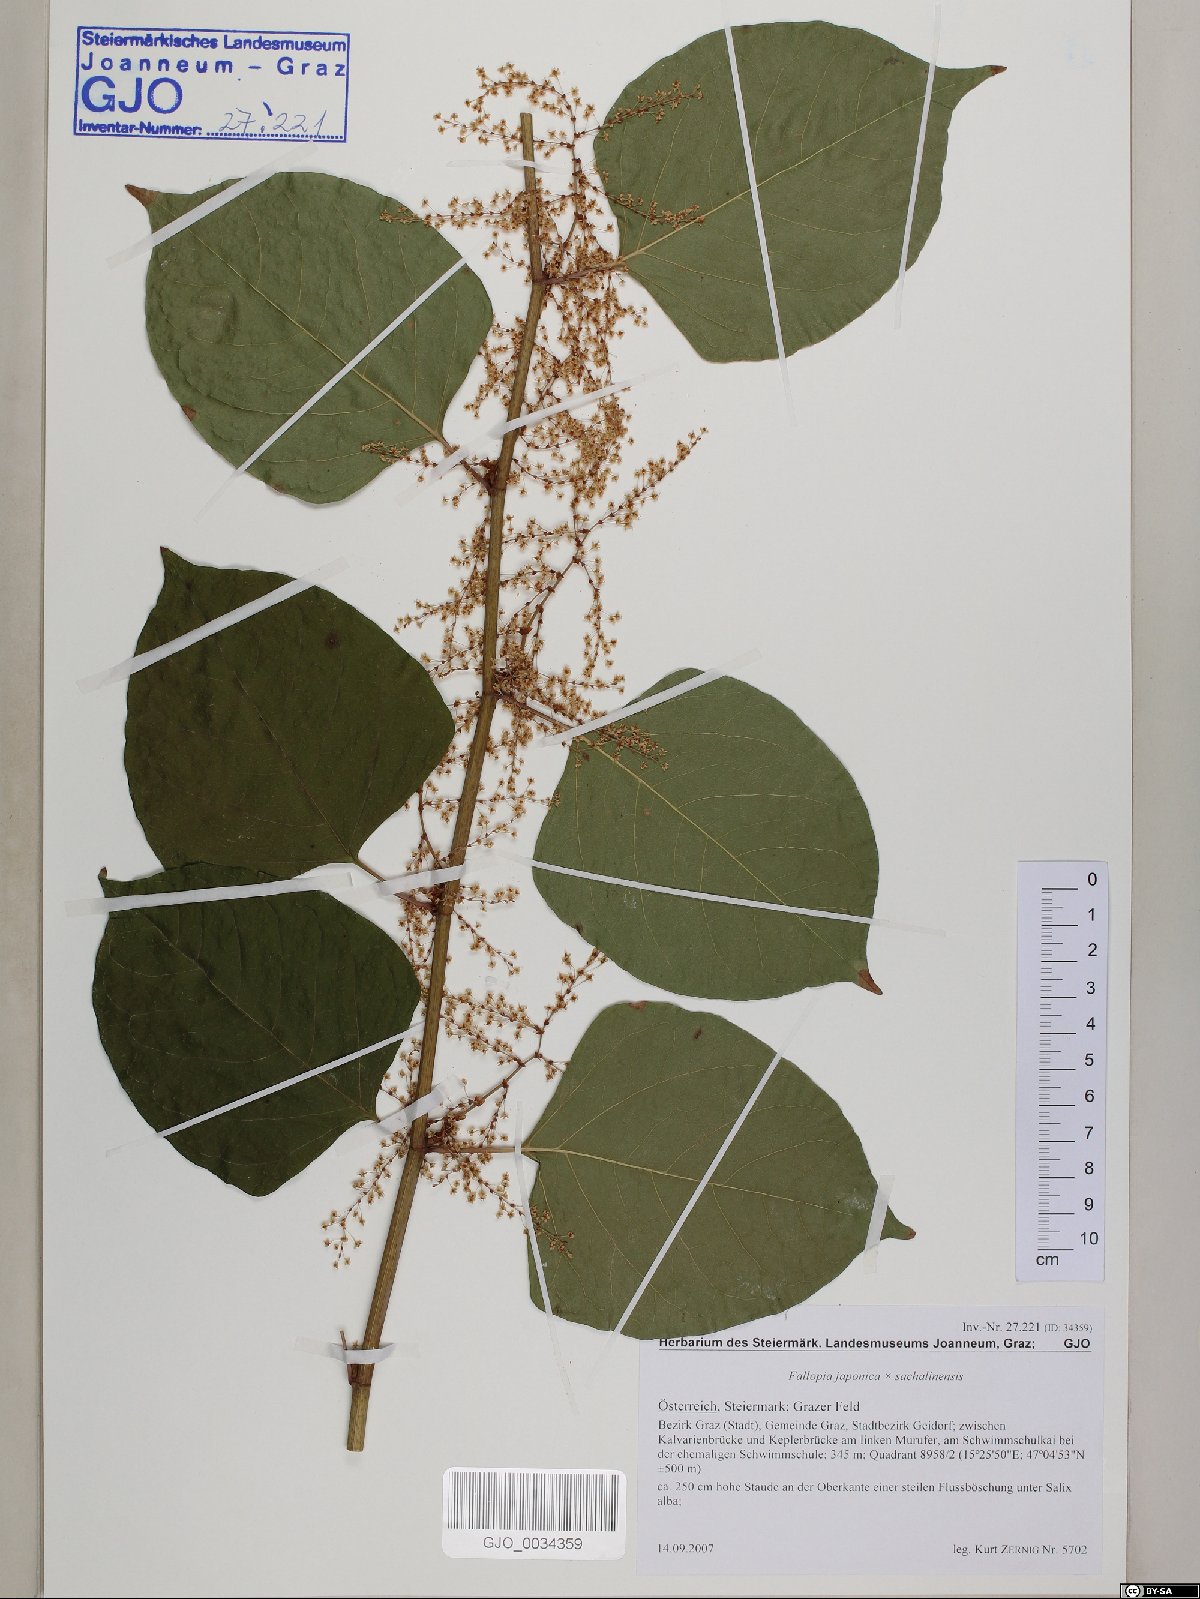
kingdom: Plantae
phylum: Tracheophyta
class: Magnoliopsida
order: Caryophyllales
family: Polygonaceae
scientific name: Polygonaceae
